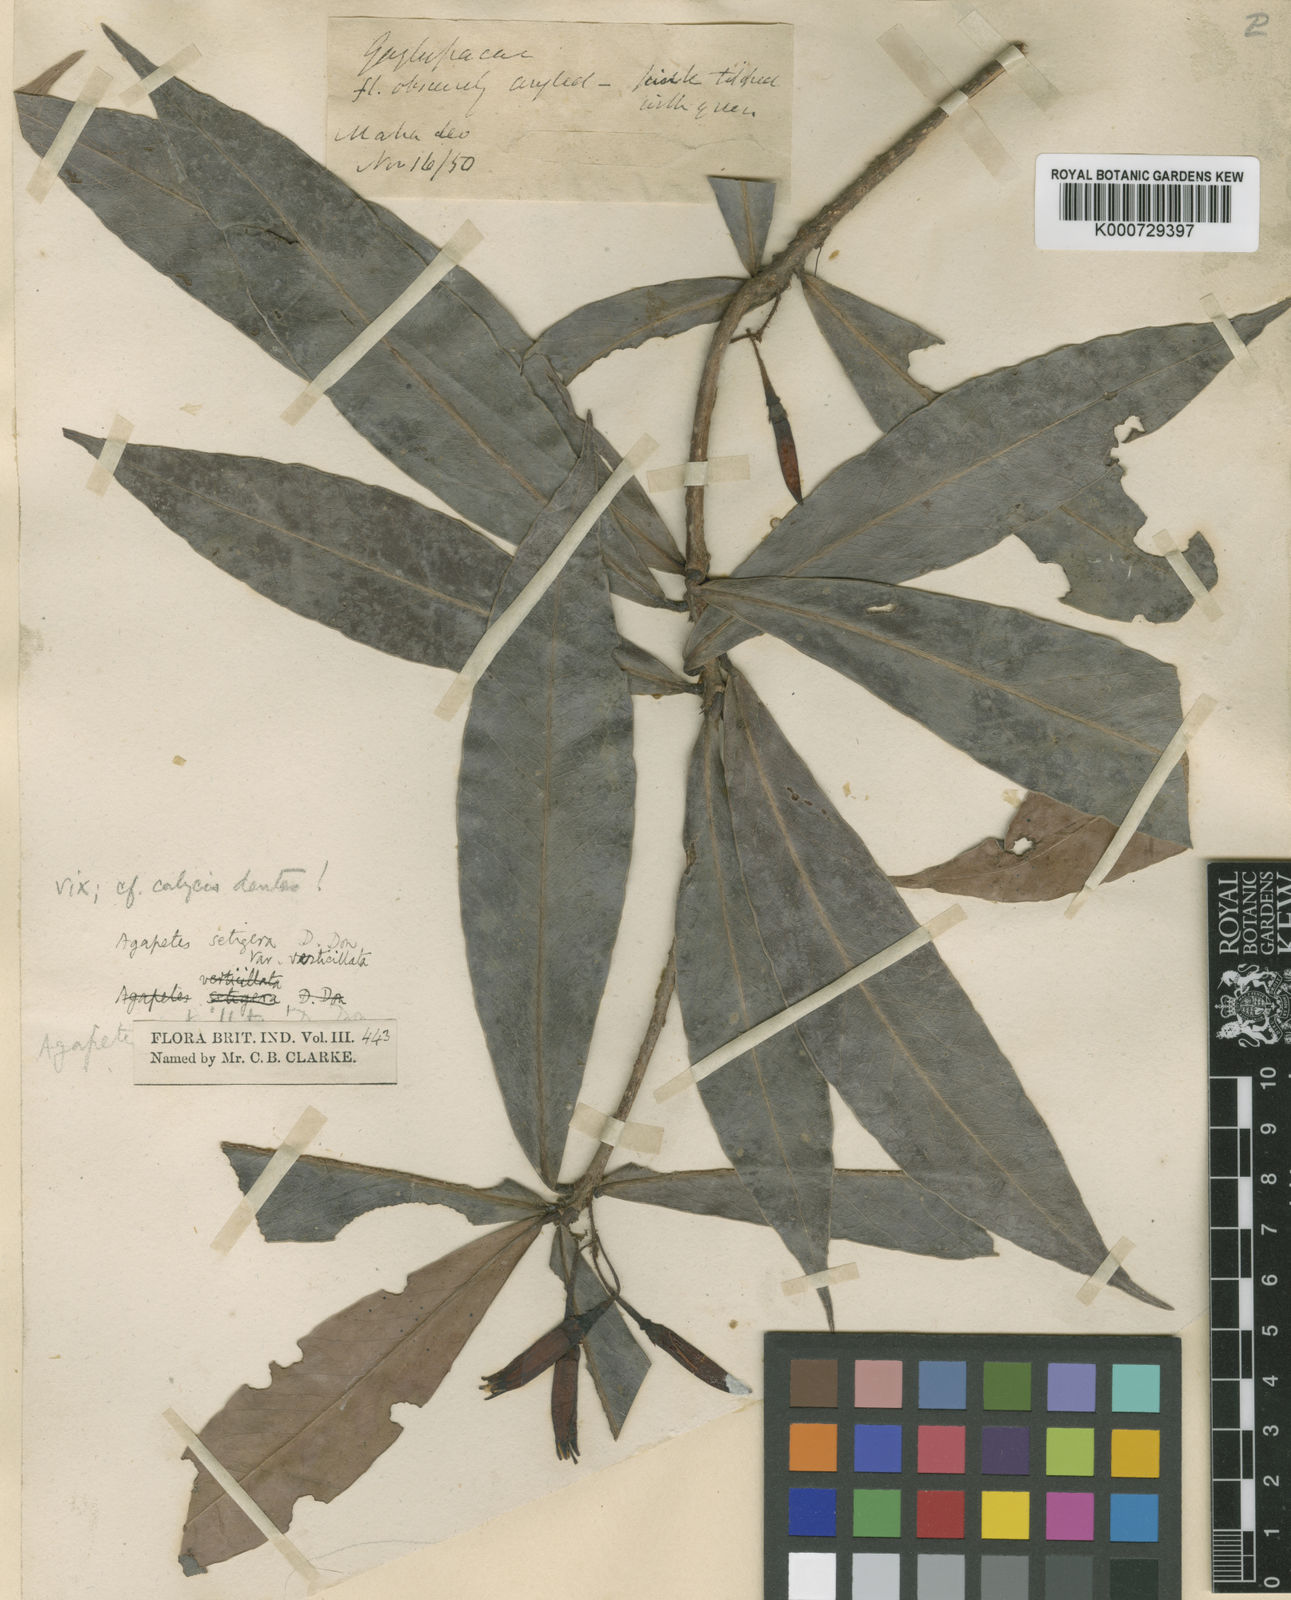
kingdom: Plantae
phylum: Tracheophyta
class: Magnoliopsida
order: Ericales
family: Ericaceae
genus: Agapetes
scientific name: Agapetes setigera
